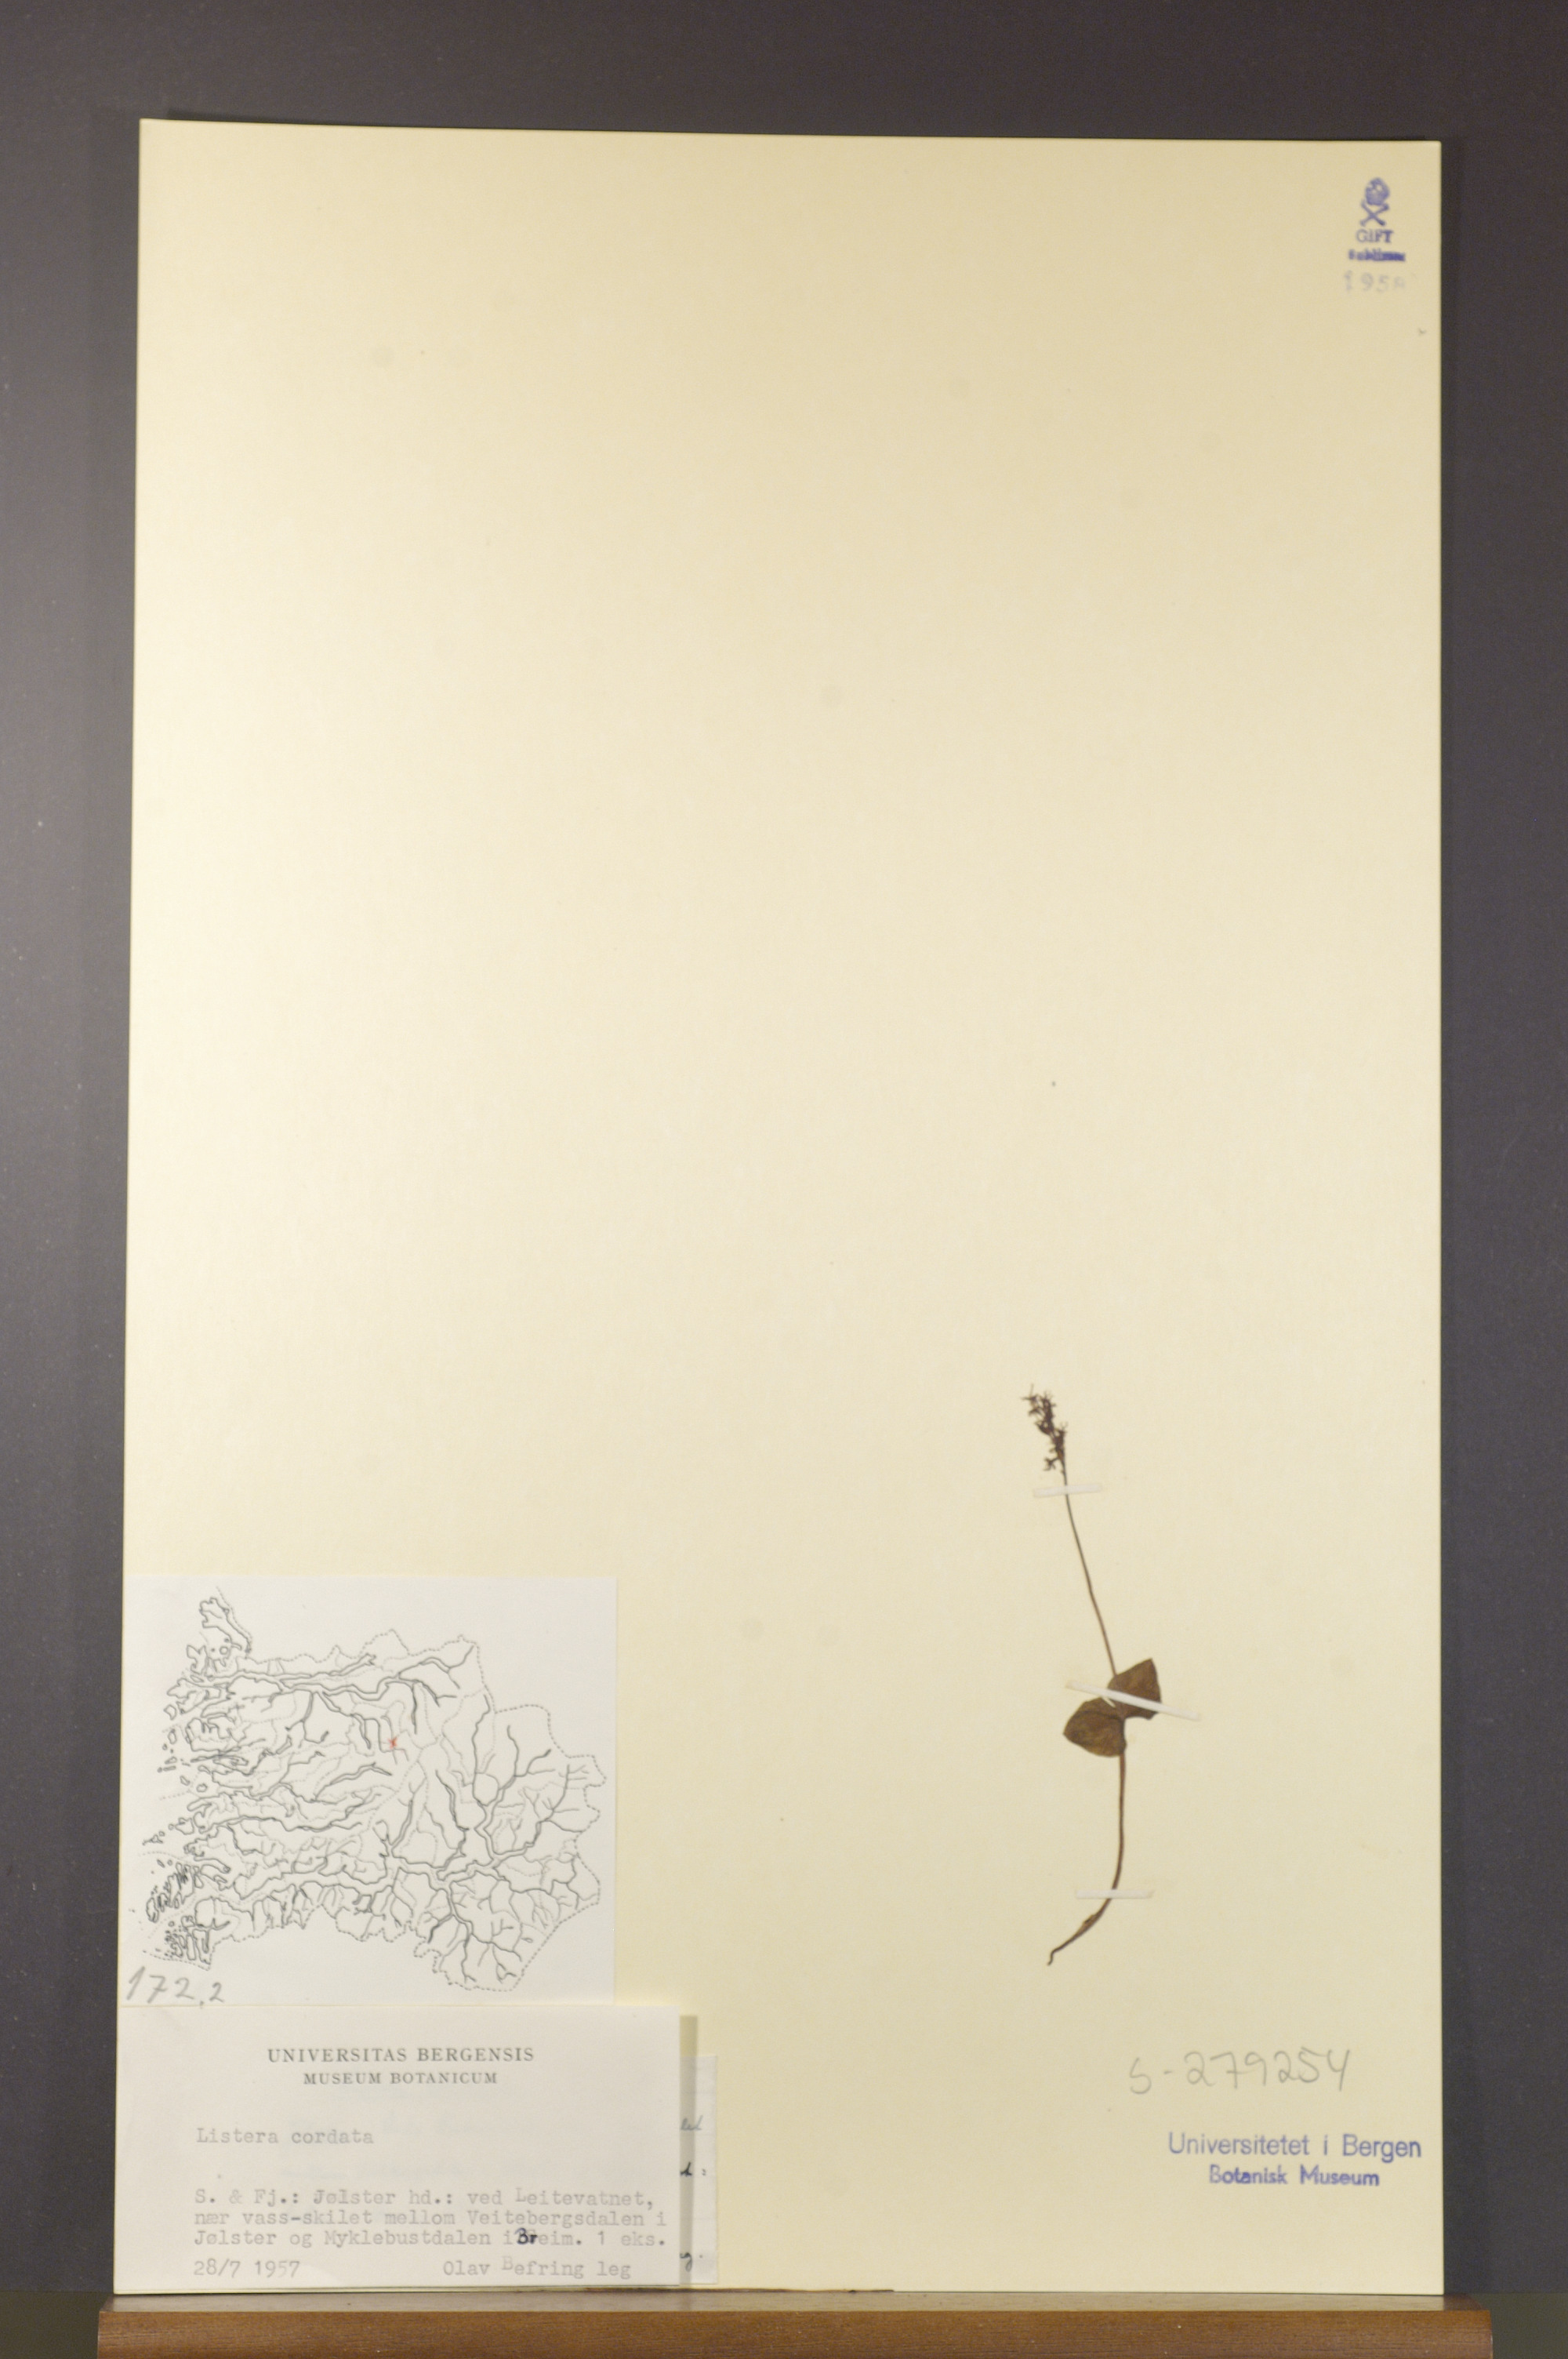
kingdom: Plantae
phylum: Tracheophyta
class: Liliopsida
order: Asparagales
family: Orchidaceae
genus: Neottia
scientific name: Neottia cordata
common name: Lesser twayblade
